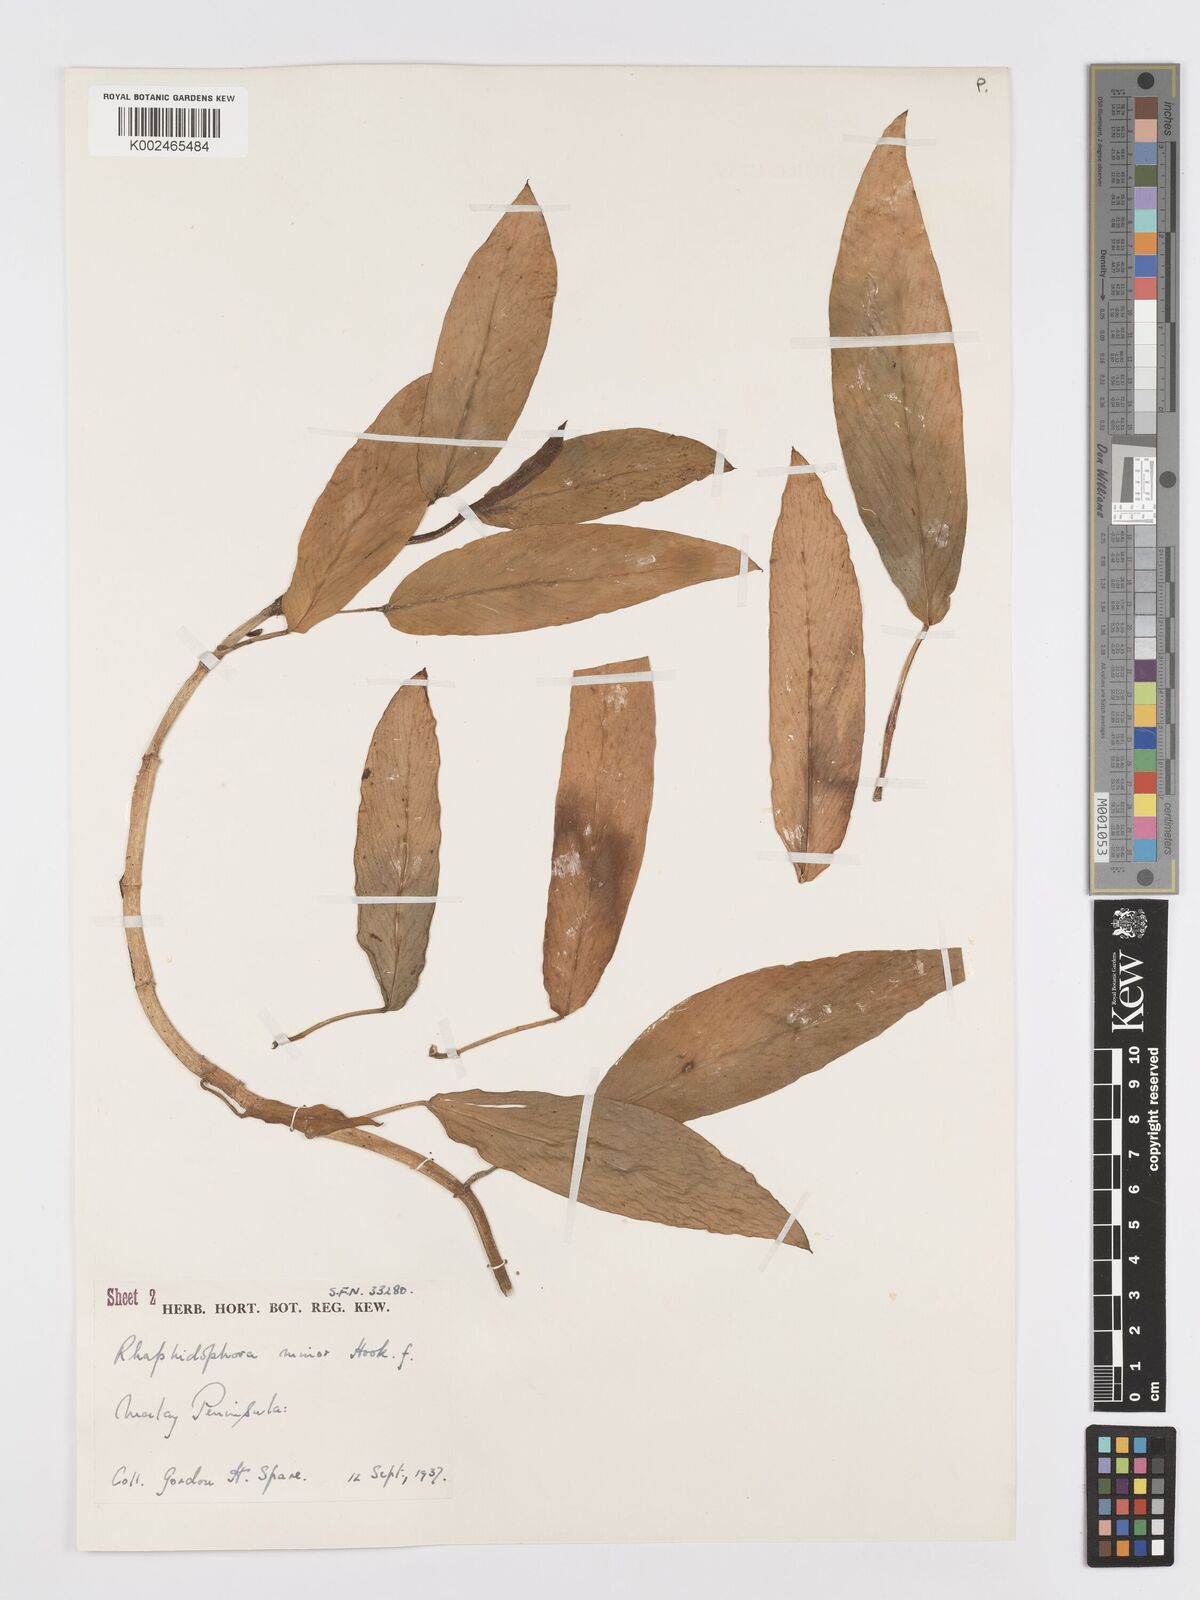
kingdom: Plantae
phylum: Tracheophyta
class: Liliopsida
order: Alismatales
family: Araceae
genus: Rhaphidophora
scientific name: Rhaphidophora minor
